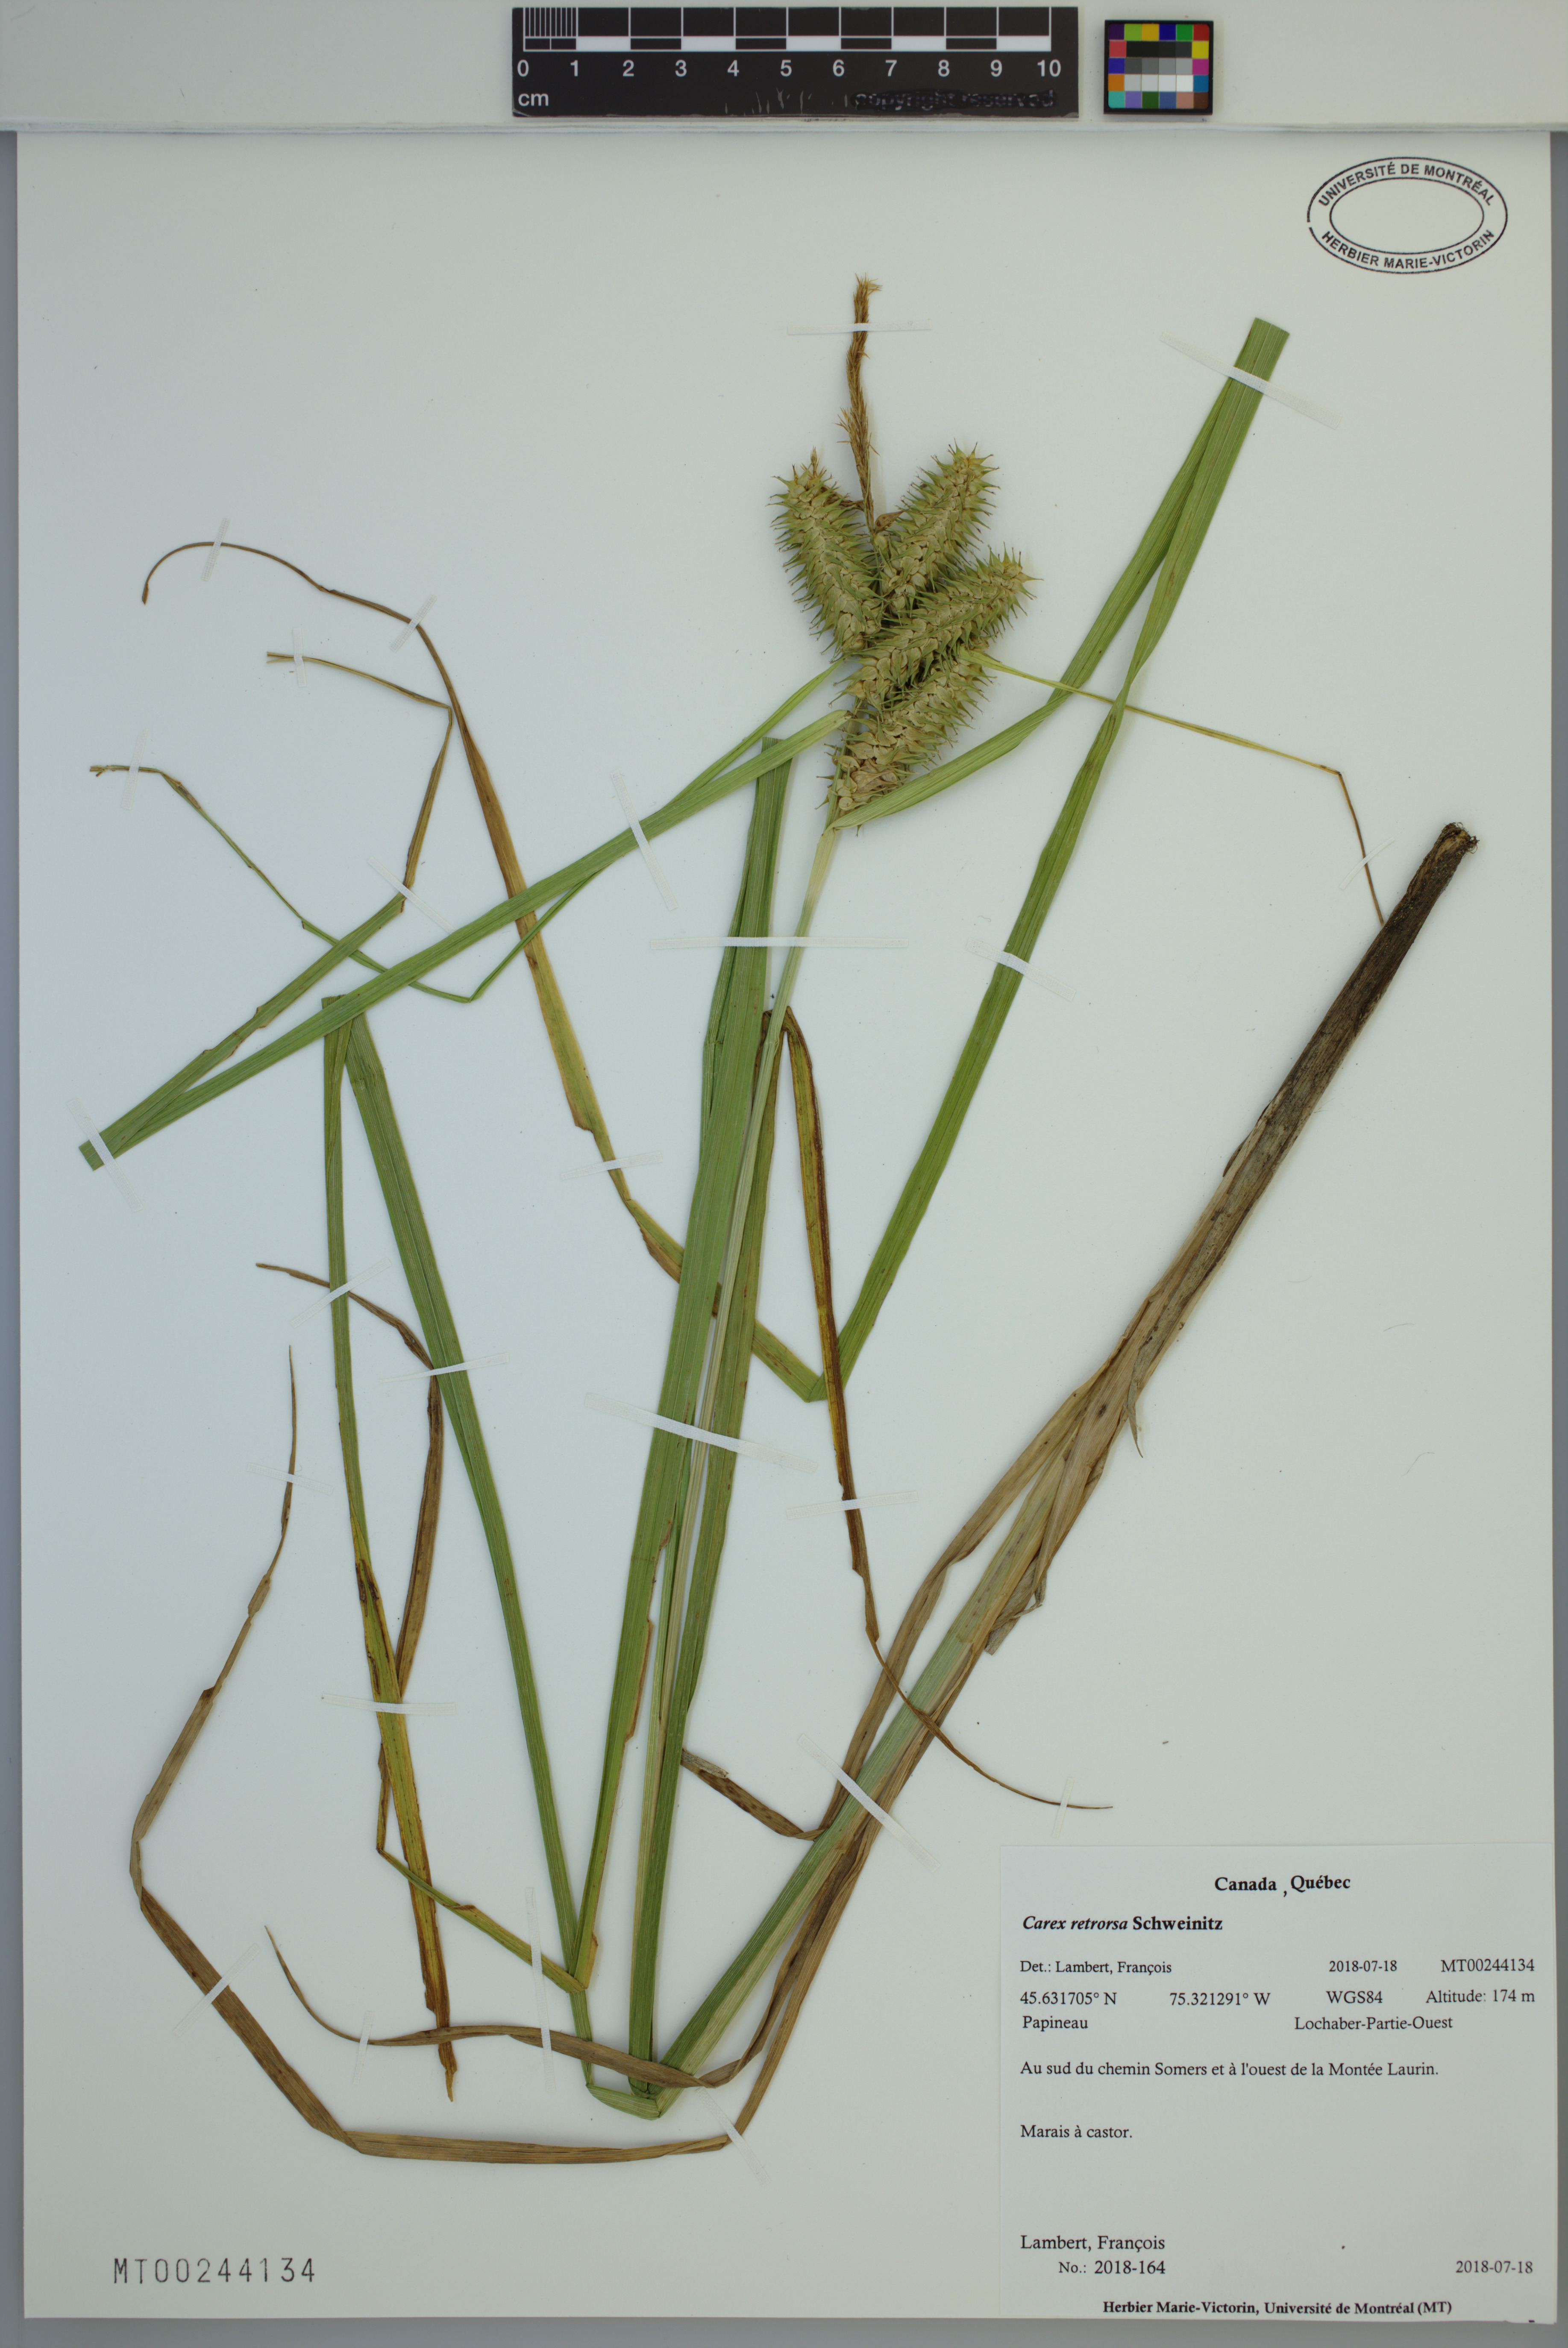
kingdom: Plantae
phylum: Tracheophyta
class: Liliopsida
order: Poales
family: Cyperaceae
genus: Carex
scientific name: Carex retrorsa
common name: Knot-sheath sedge
